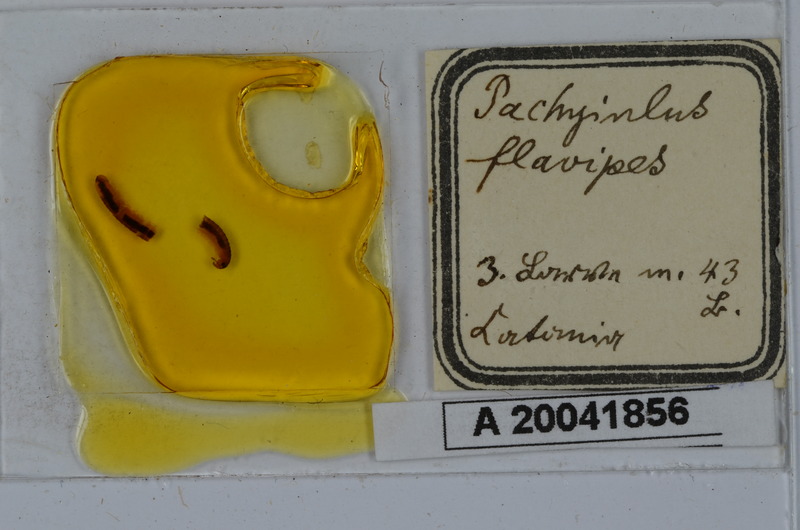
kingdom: Animalia
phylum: Arthropoda
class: Diplopoda
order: Julida
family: Julidae
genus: Pachyiulus
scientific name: Pachyiulus flavipes
